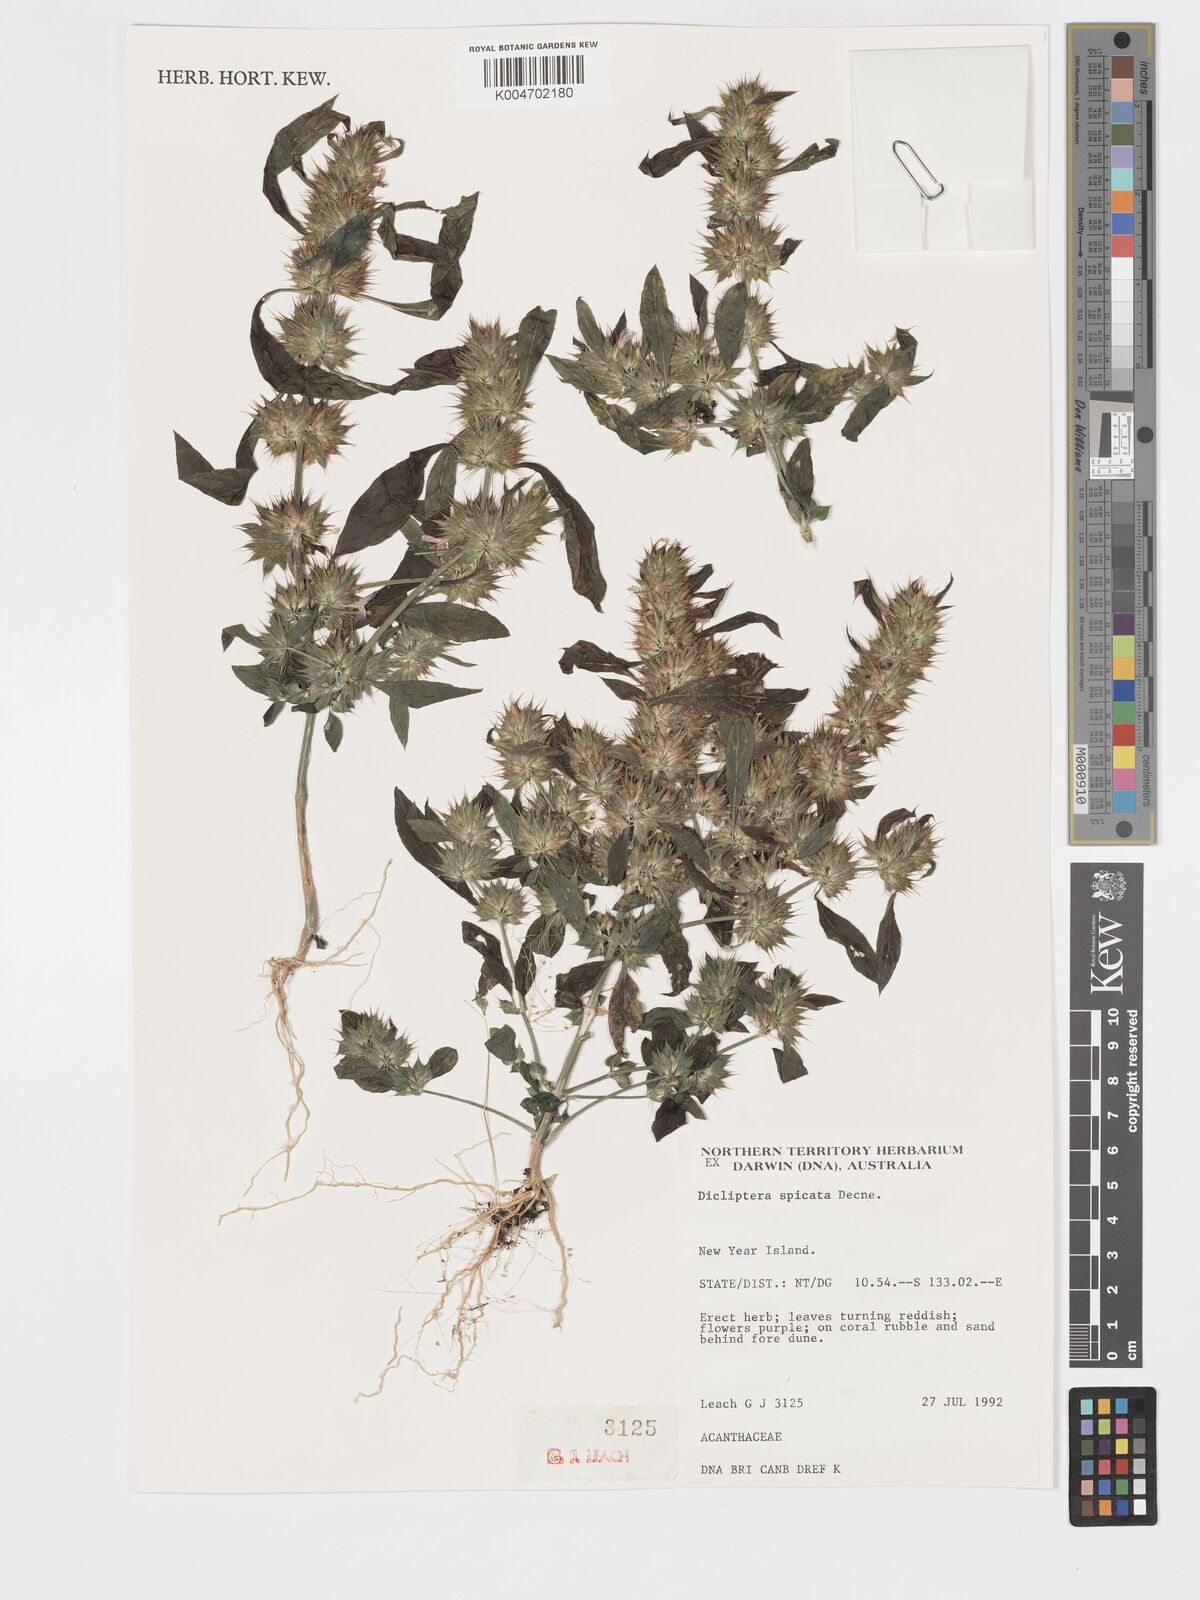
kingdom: Plantae
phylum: Tracheophyta
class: Magnoliopsida
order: Lamiales
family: Acanthaceae
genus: Dicliptera
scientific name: Dicliptera
